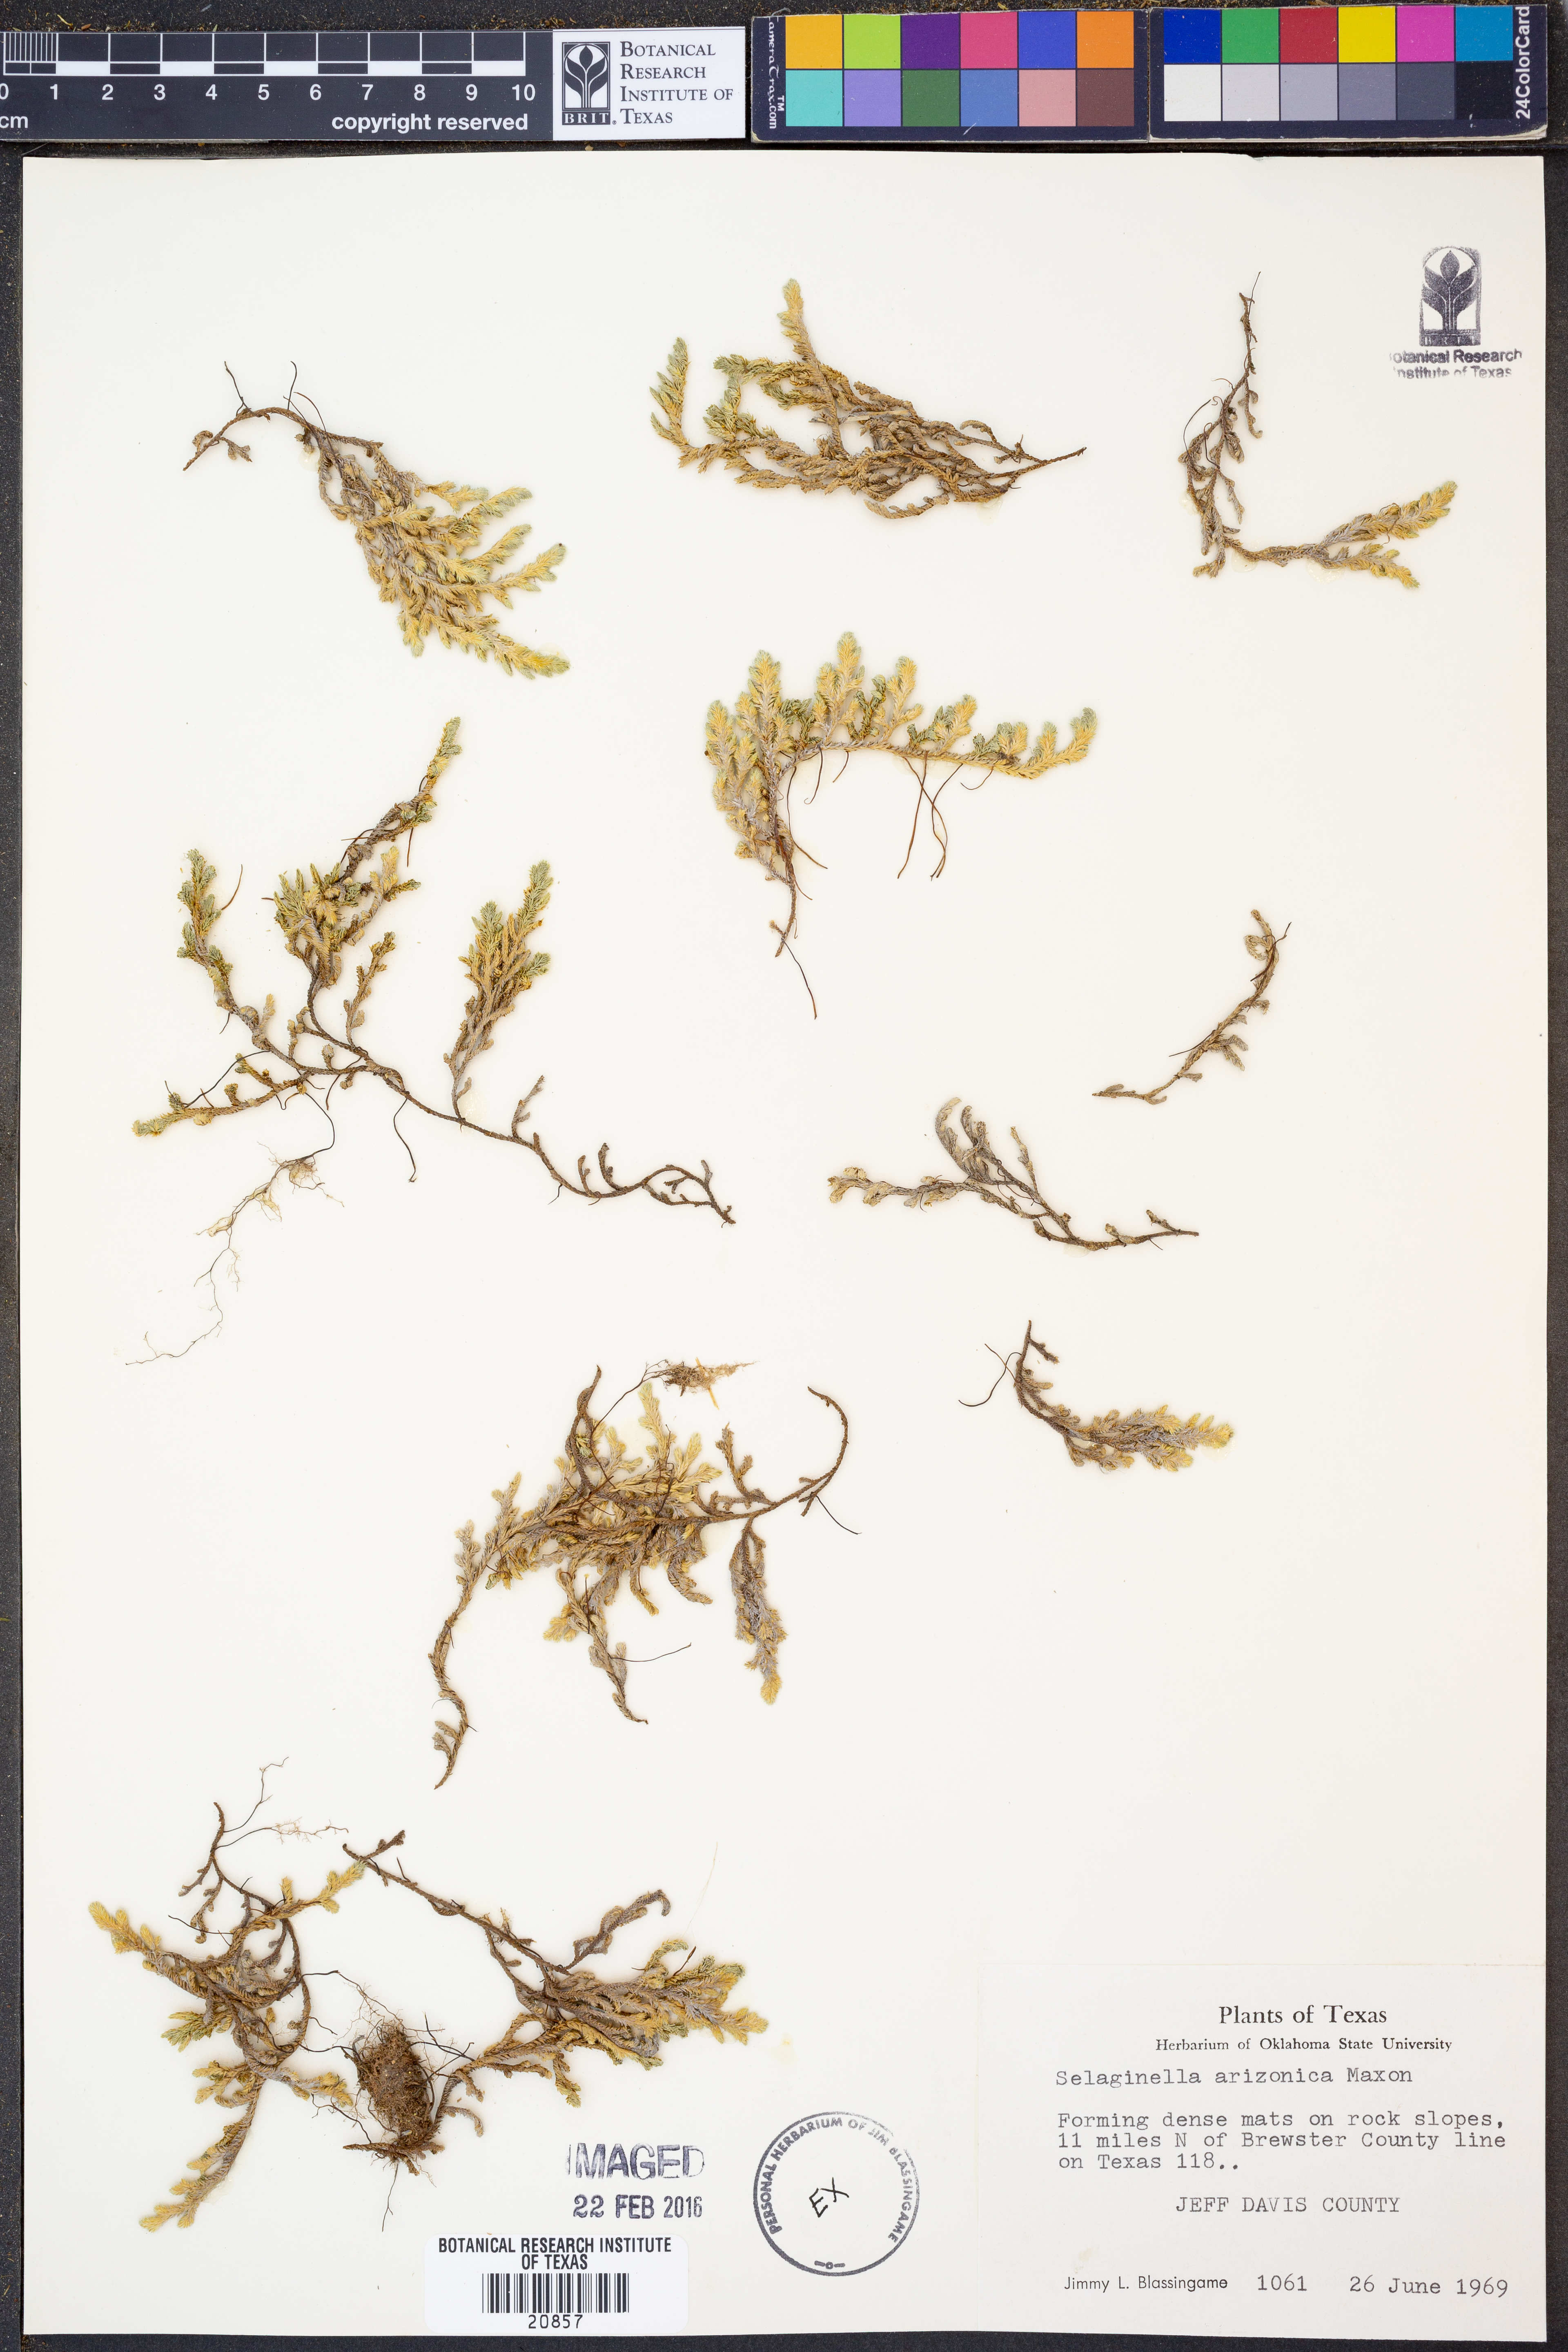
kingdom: Plantae
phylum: Tracheophyta
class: Lycopodiopsida
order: Selaginellales
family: Selaginellaceae
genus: Selaginella
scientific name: Selaginella arizonica
